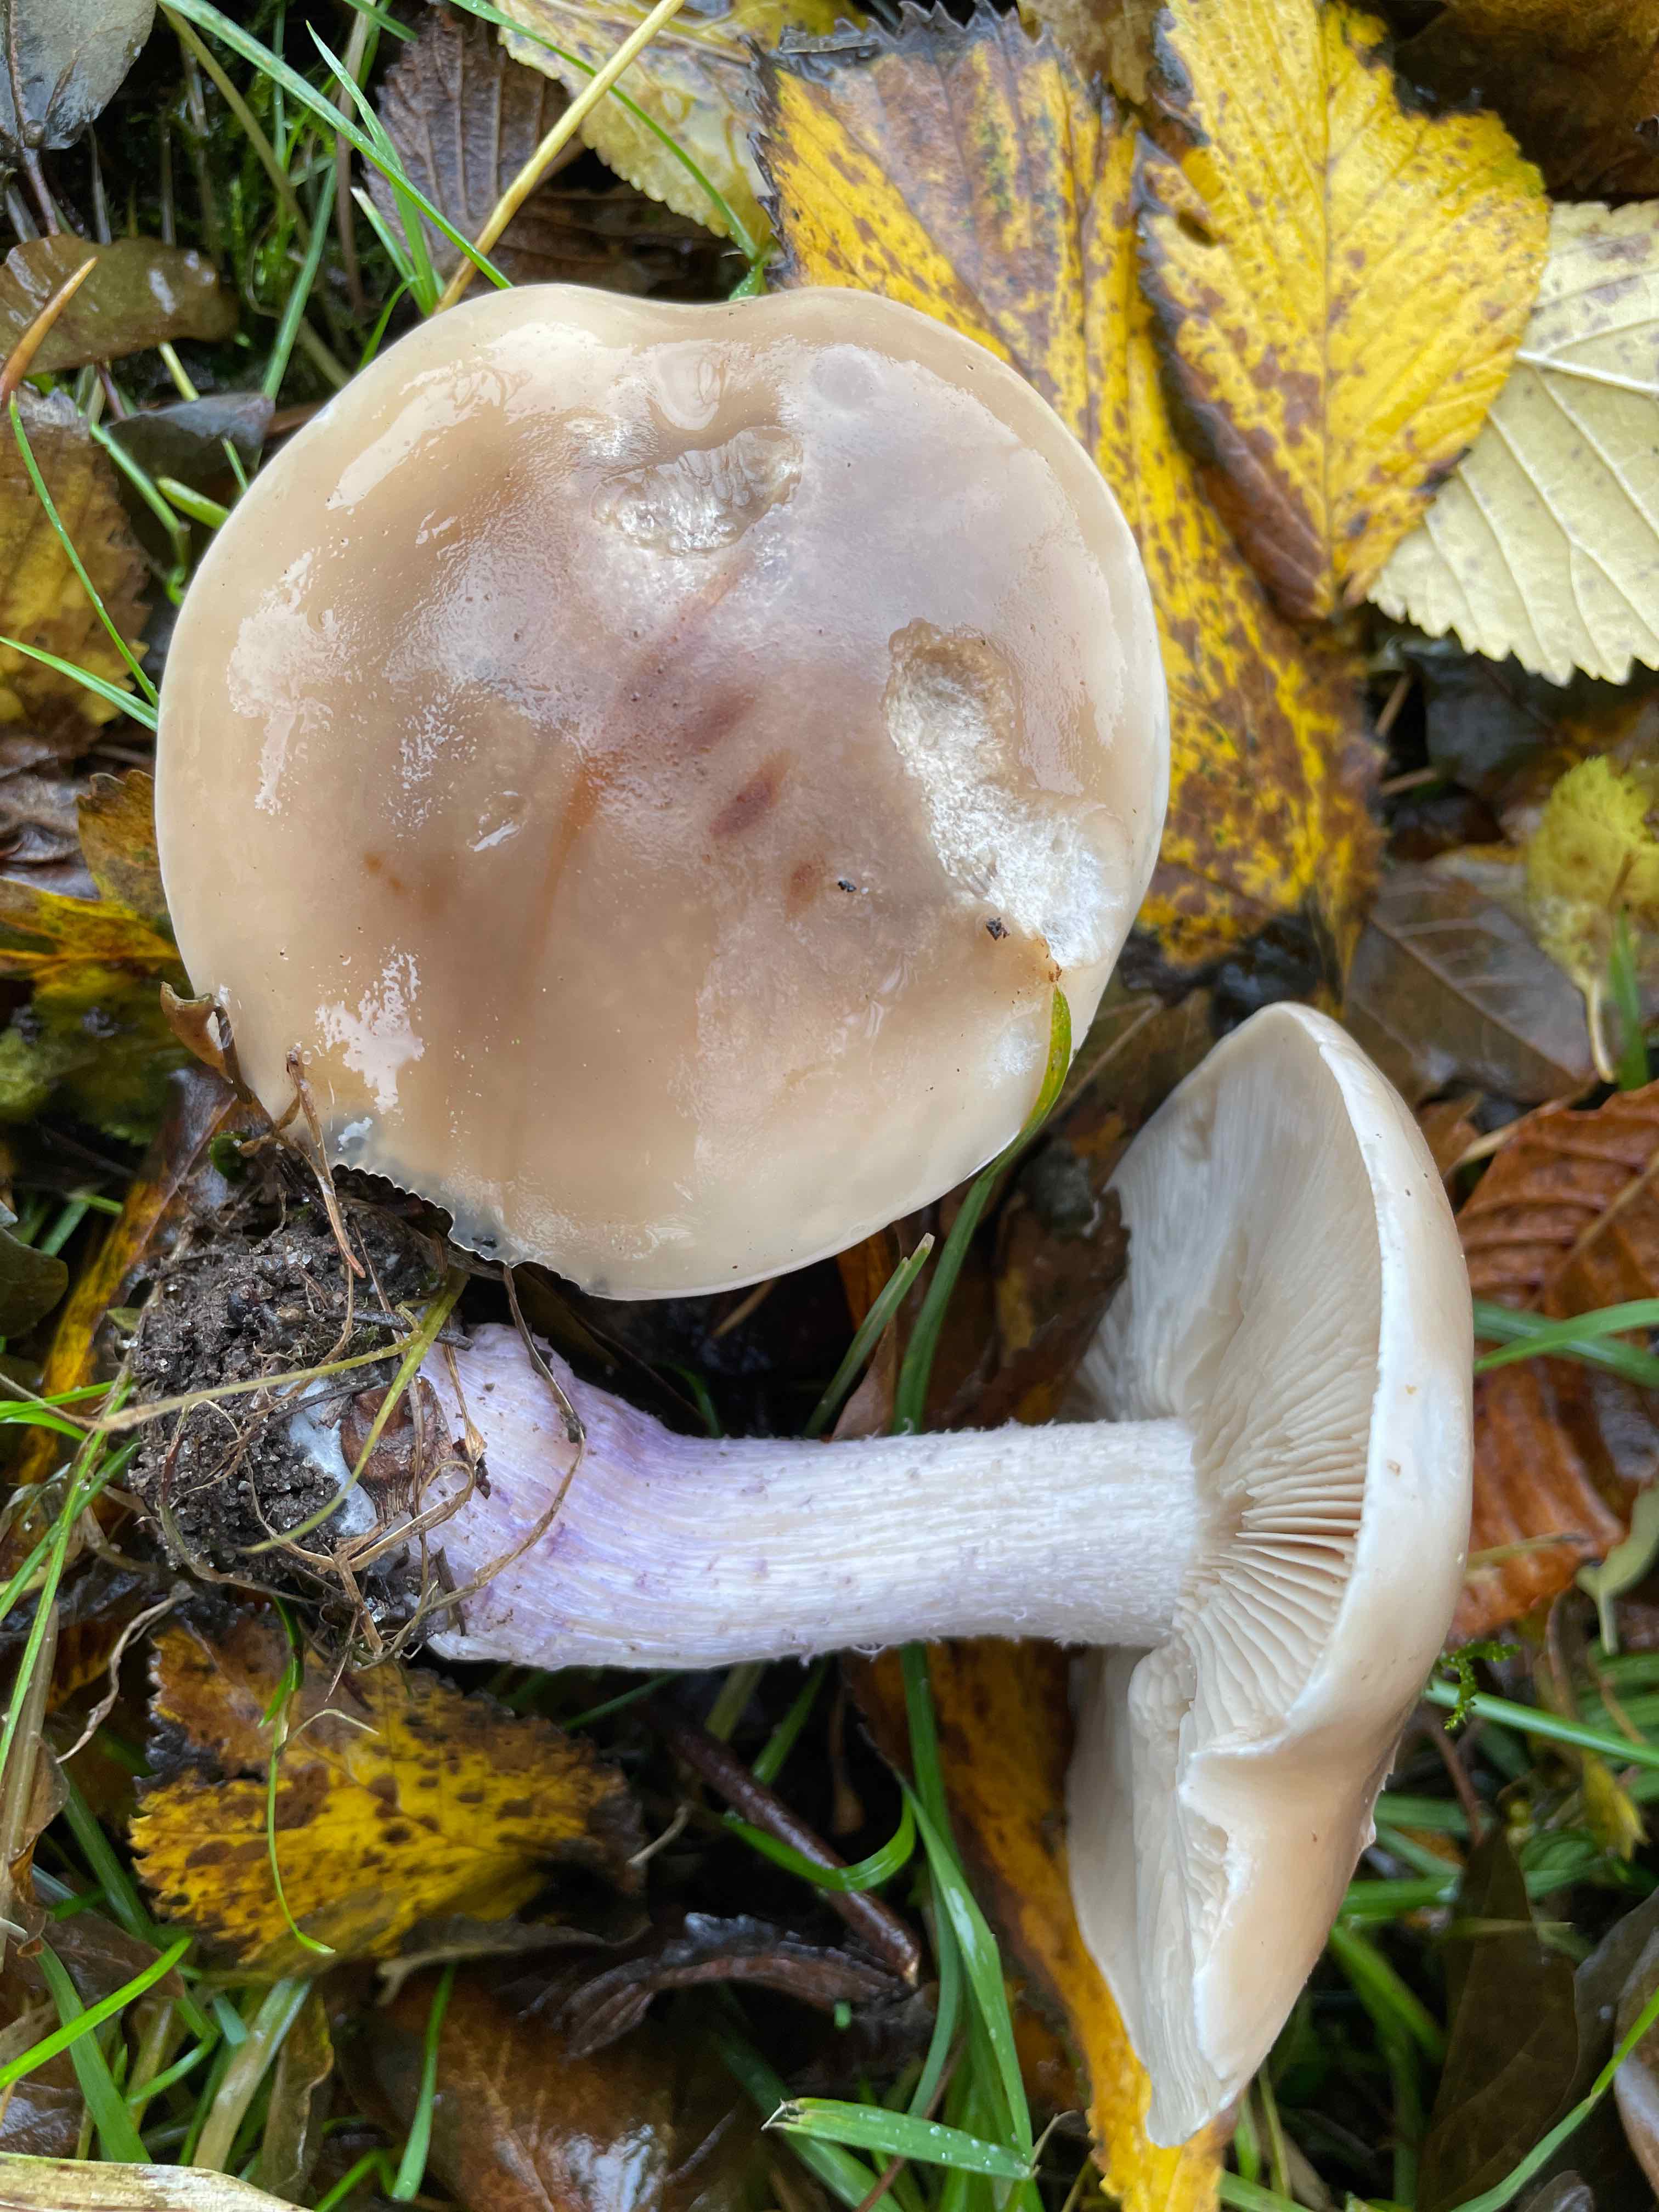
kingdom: Fungi
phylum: Basidiomycota
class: Agaricomycetes
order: Agaricales
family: Tricholomataceae
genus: Lepista
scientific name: Lepista personata
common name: bleg hekseringshat
